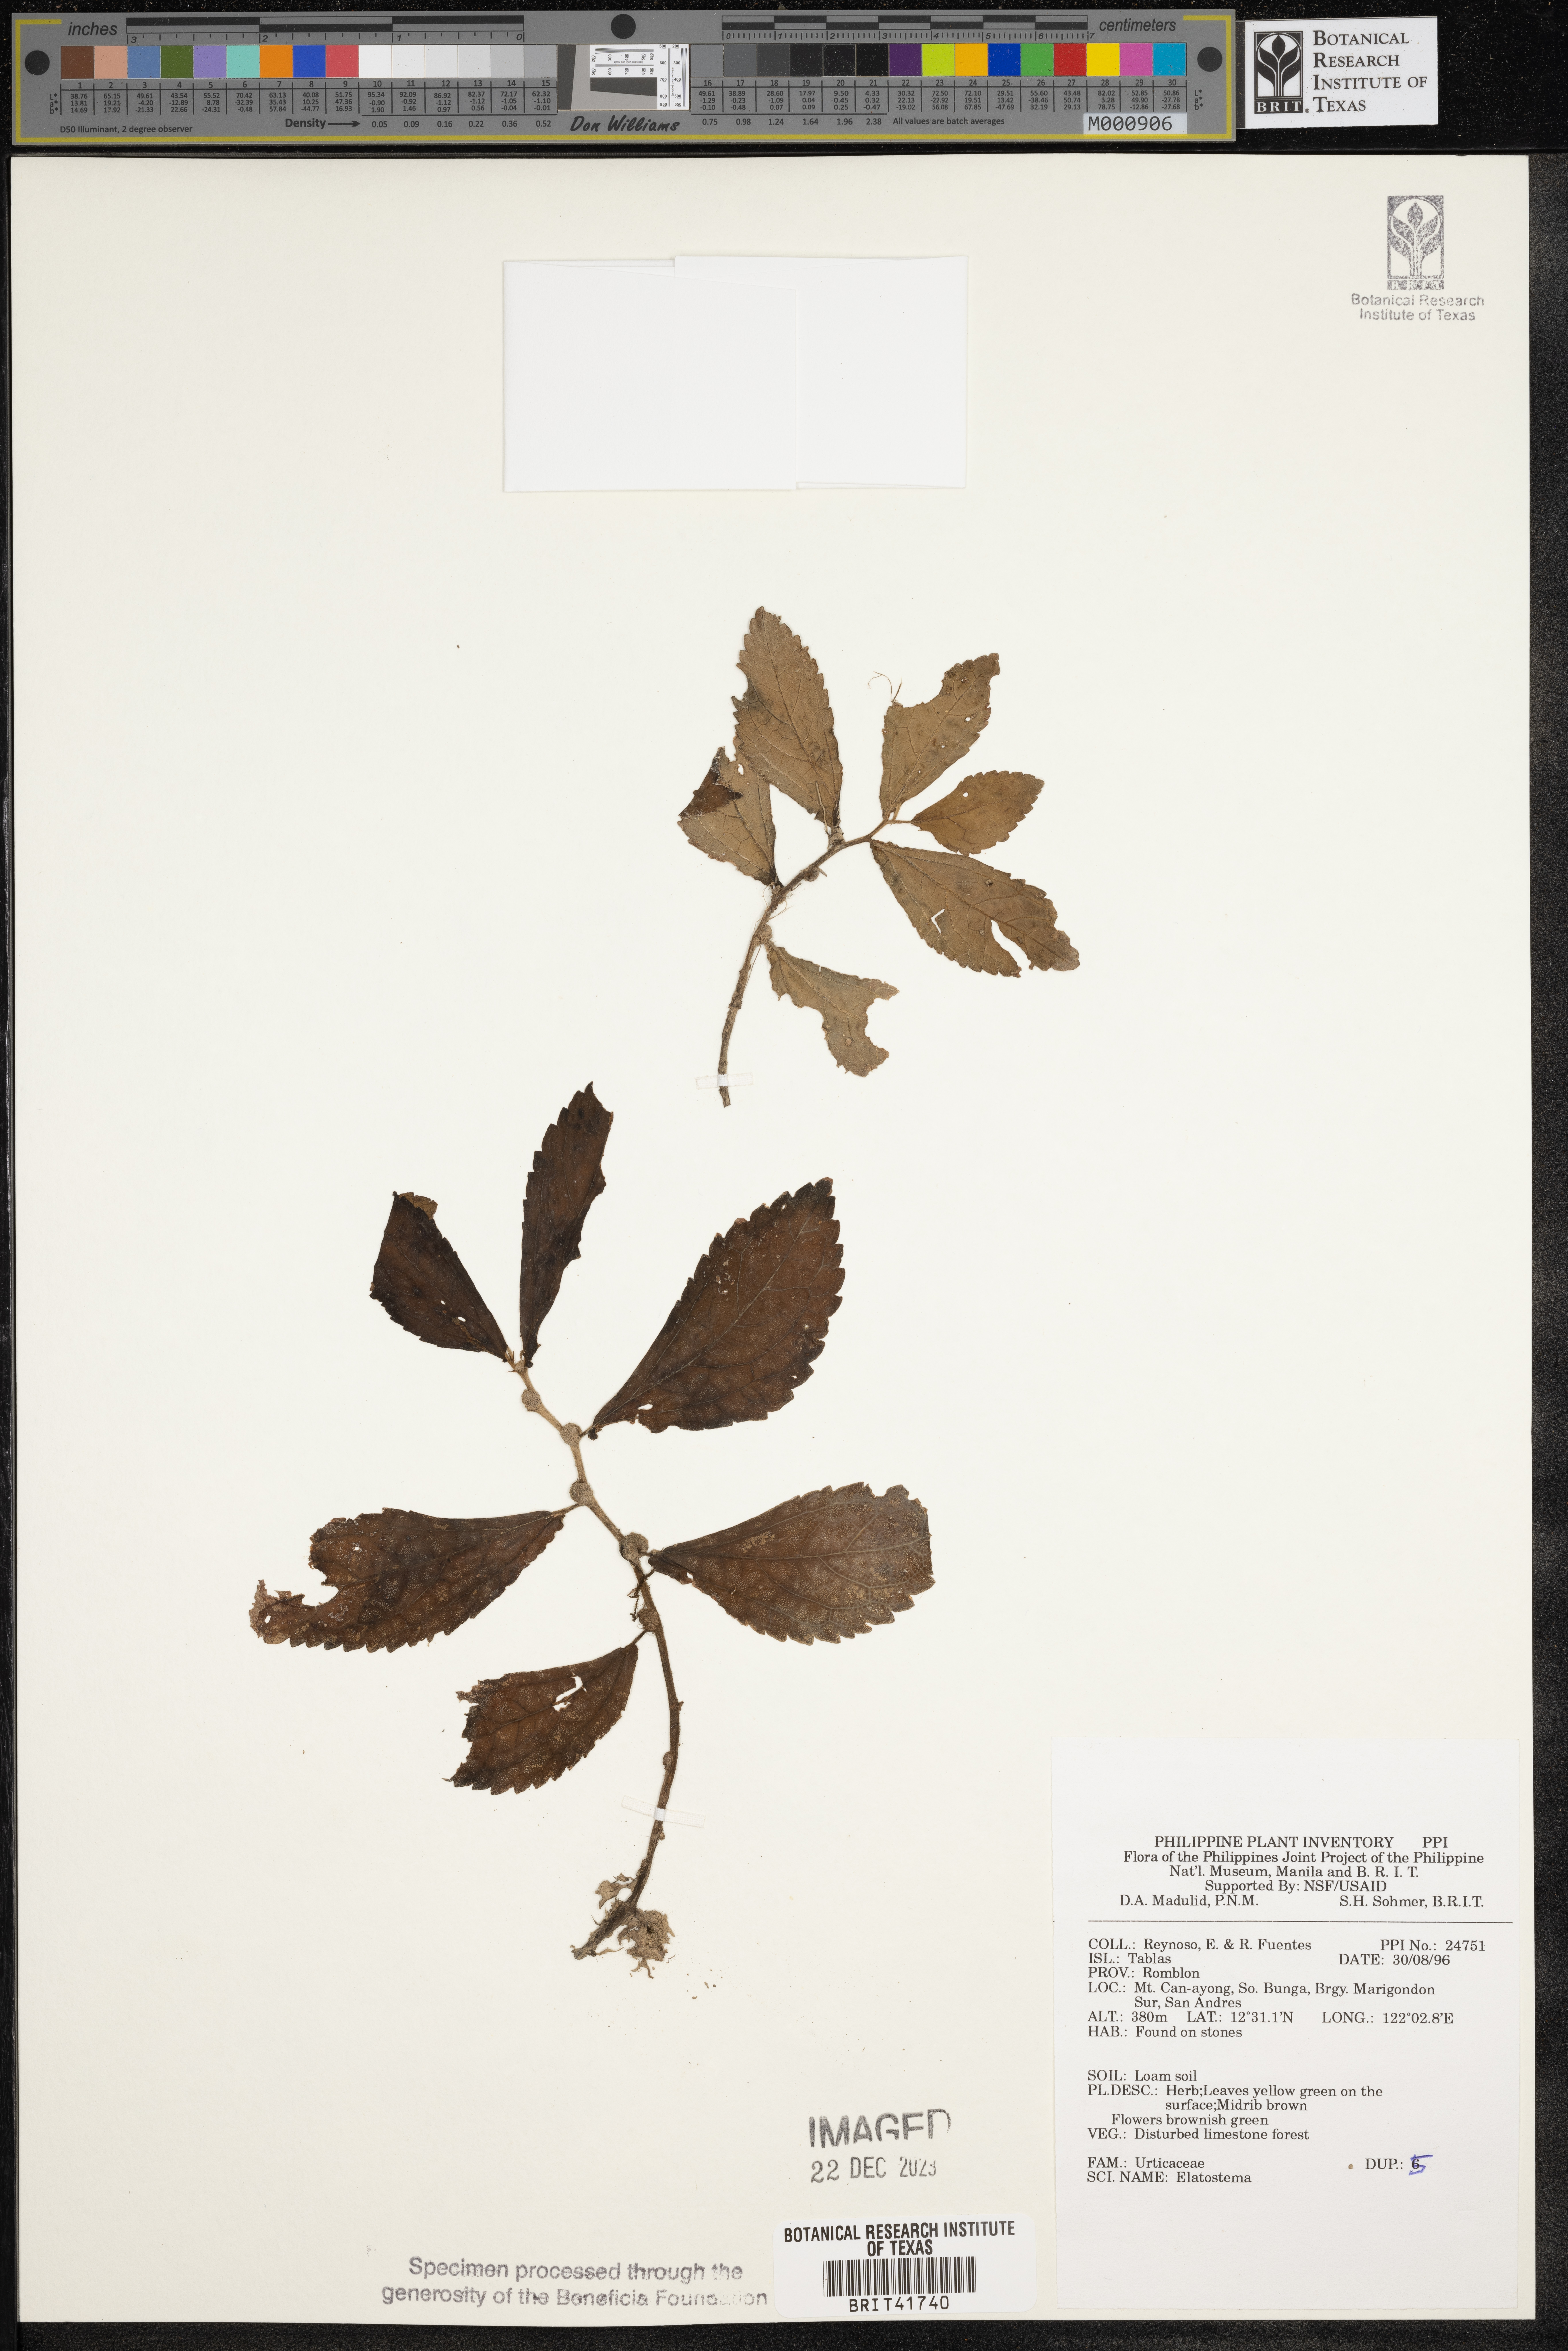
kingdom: Plantae
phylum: Tracheophyta
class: Magnoliopsida
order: Rosales
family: Urticaceae
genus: Elatostema
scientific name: Elatostema
